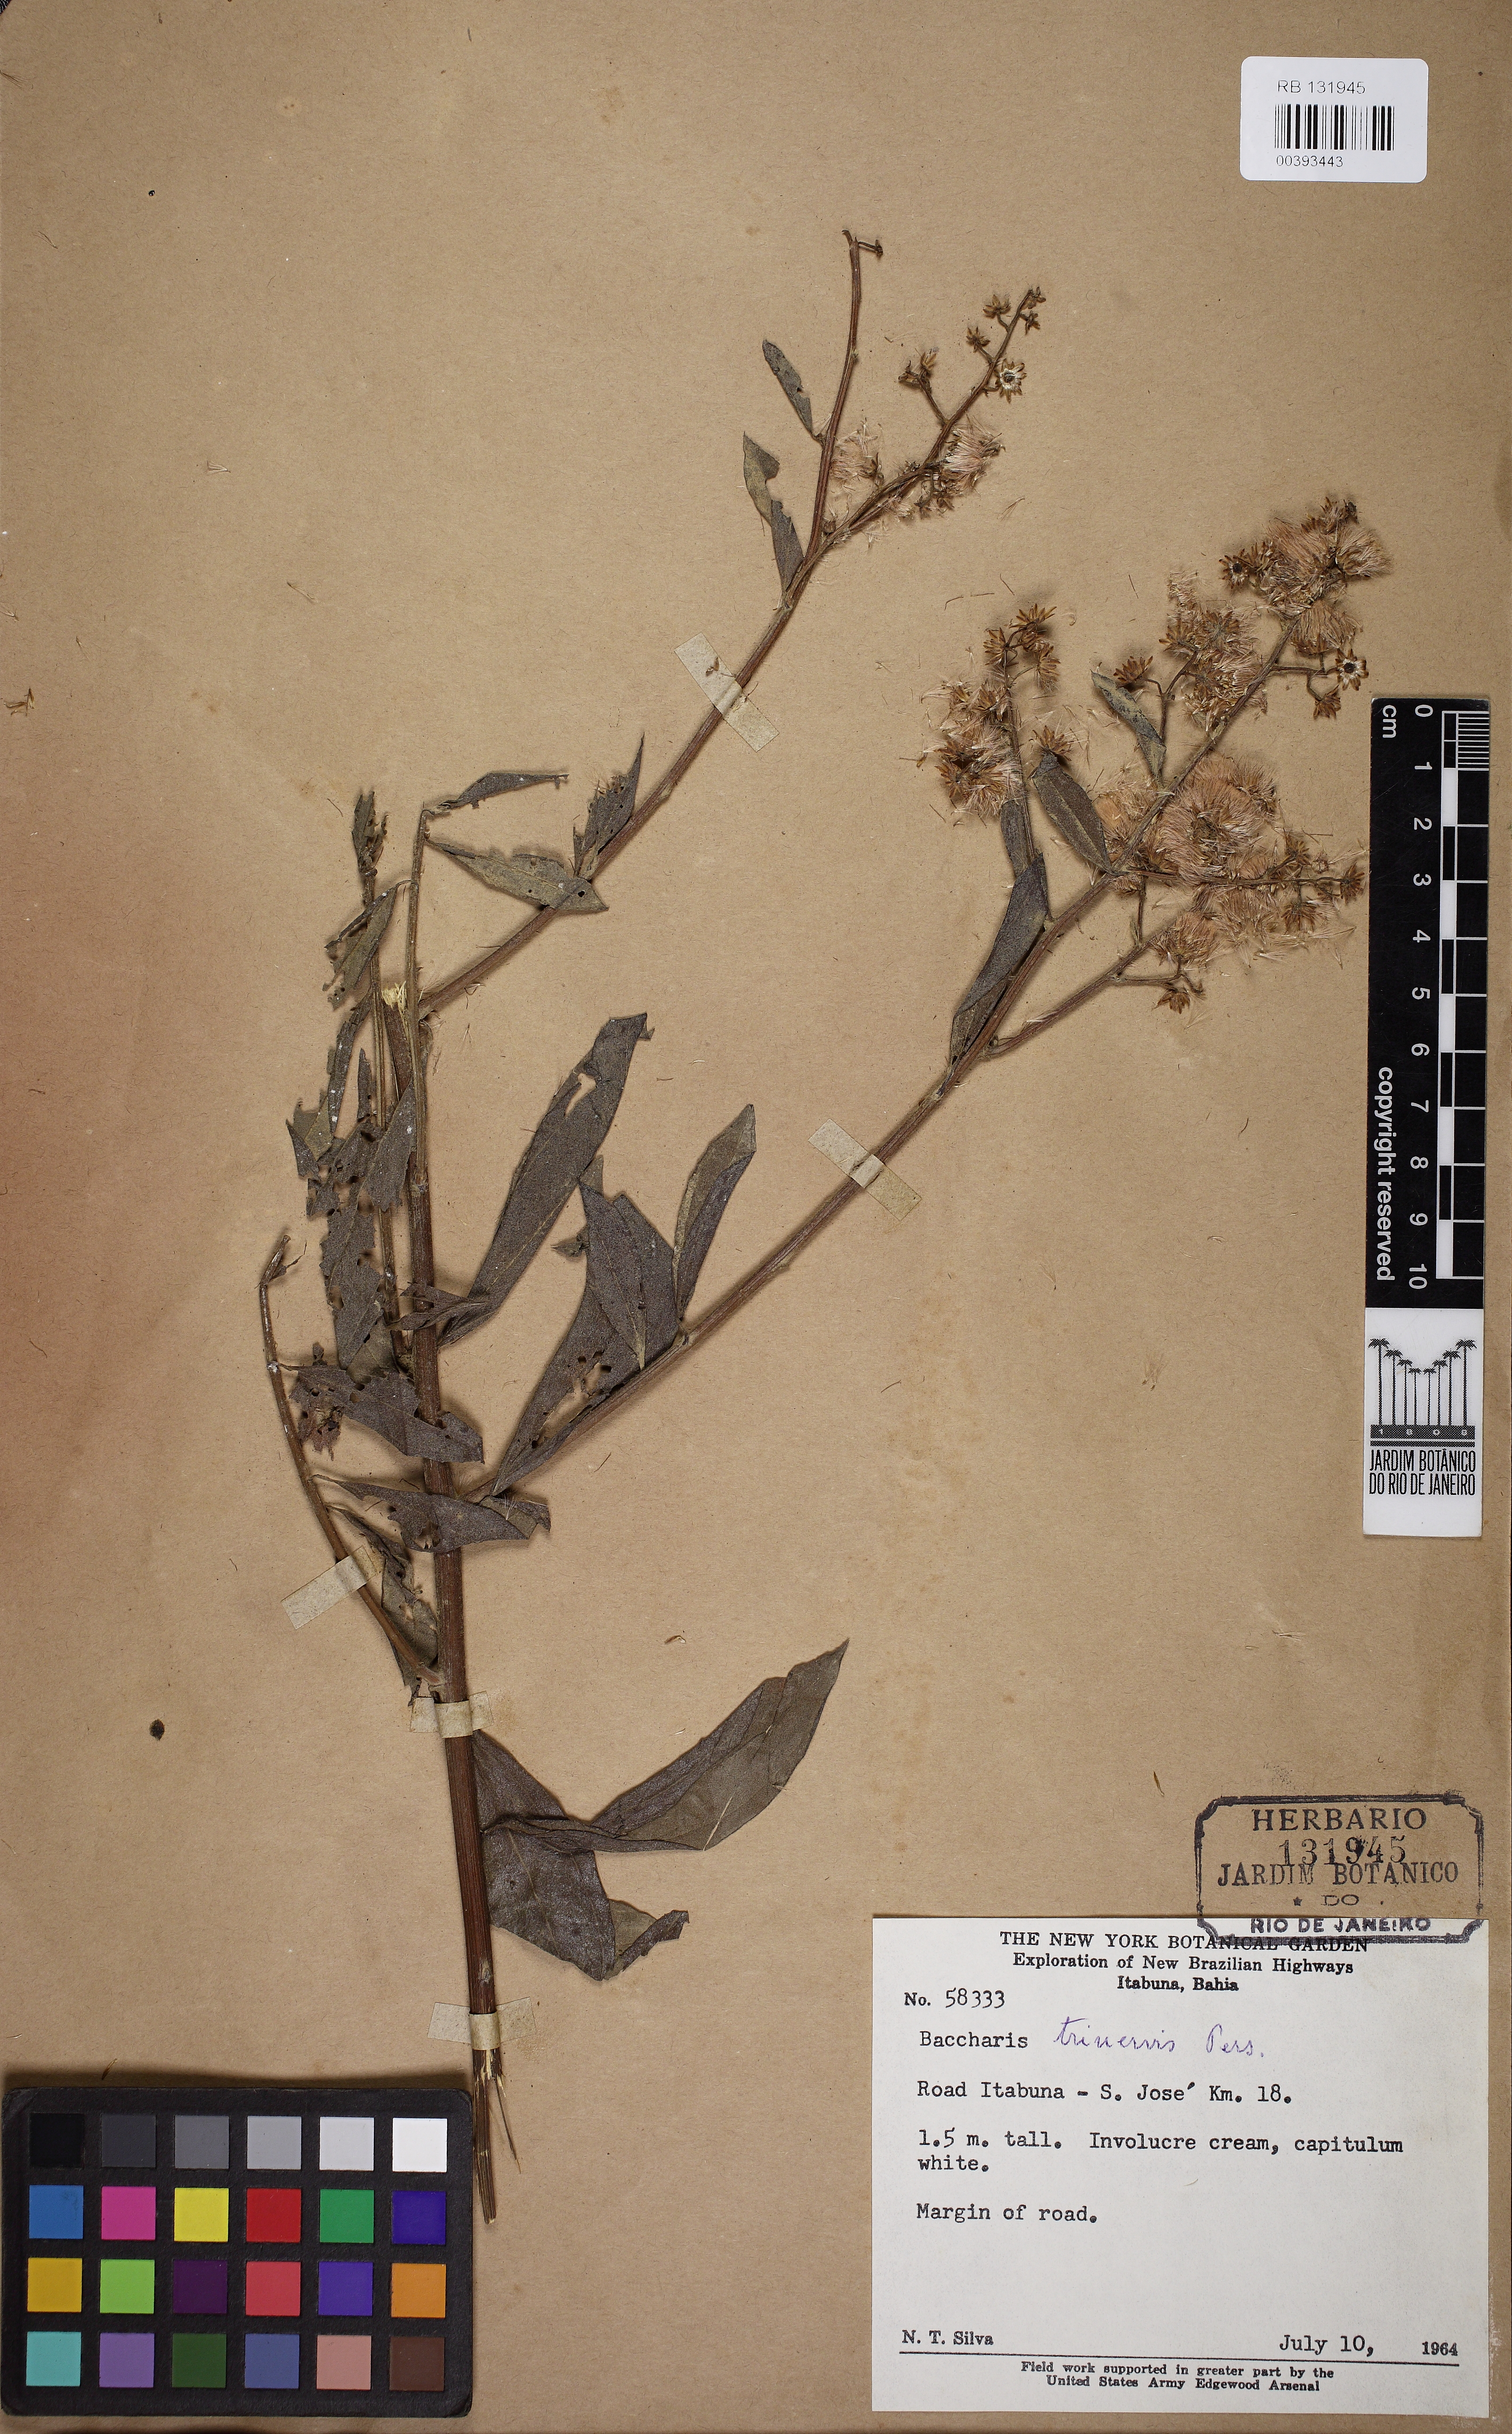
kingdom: Plantae
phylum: Tracheophyta
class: Magnoliopsida
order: Asterales
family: Asteraceae
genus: Baccharis
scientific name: Baccharis trinervis
